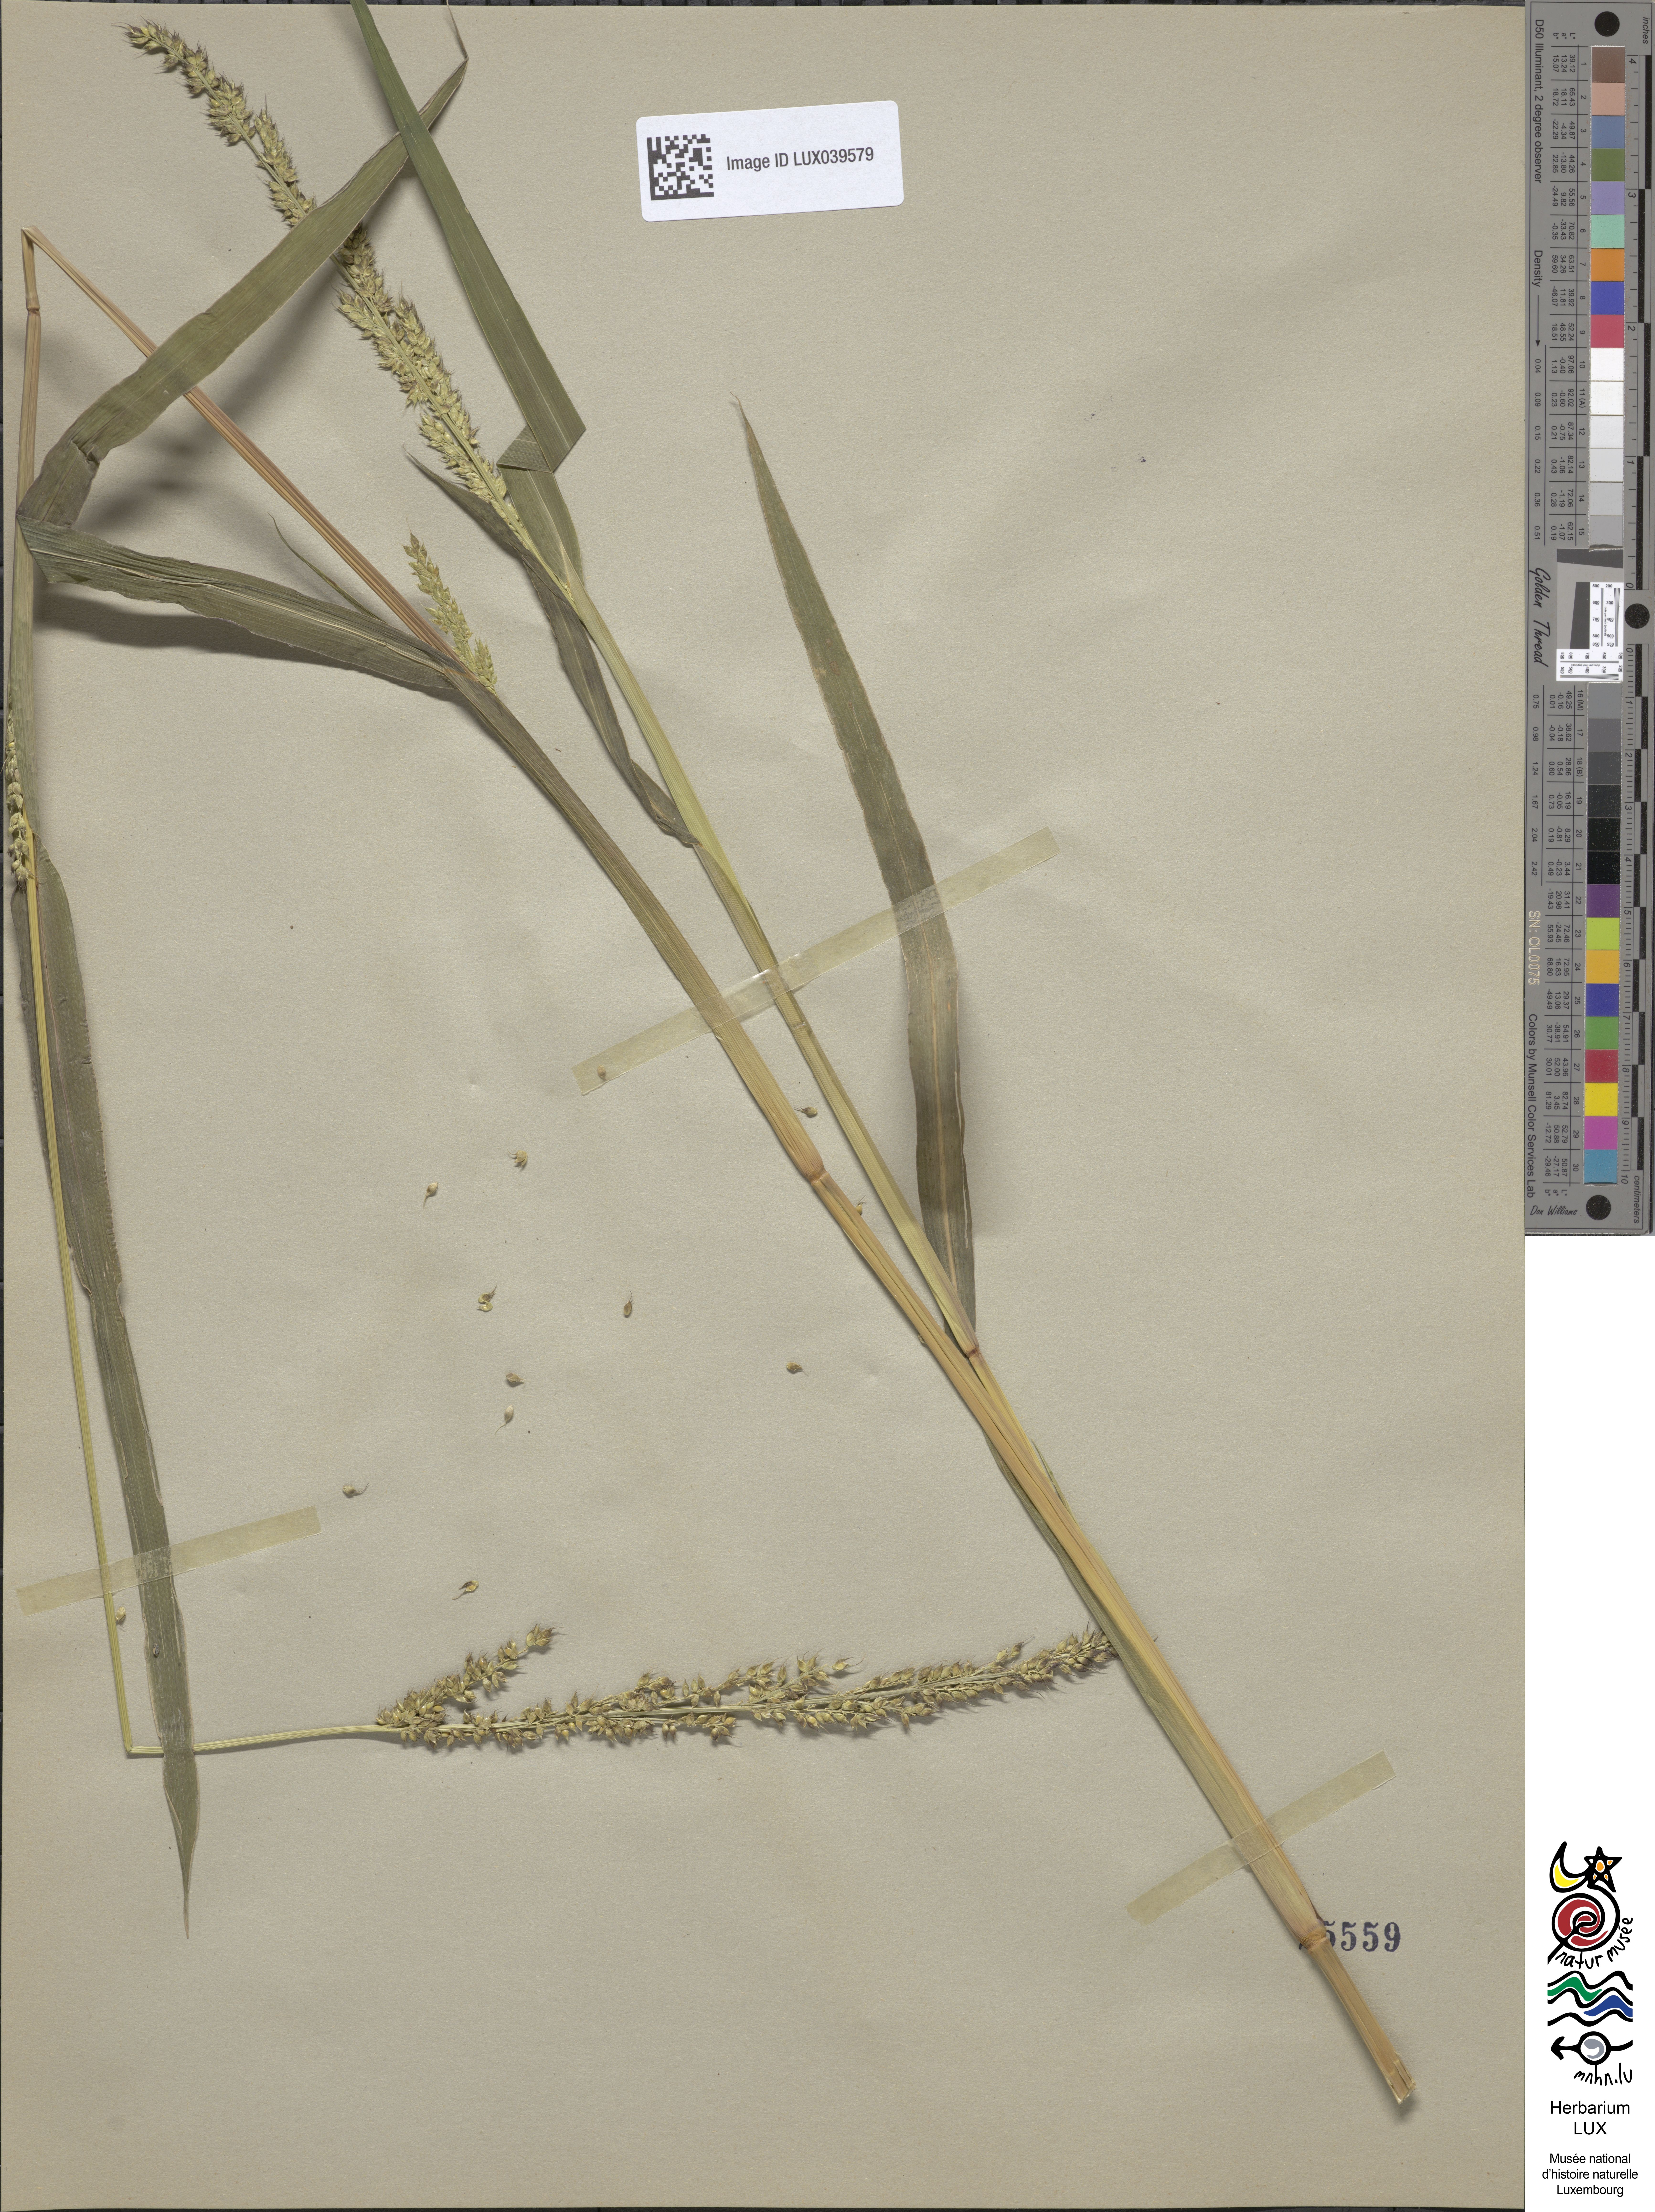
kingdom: Plantae
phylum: Tracheophyta
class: Liliopsida
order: Poales
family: Poaceae
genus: Echinochloa
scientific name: Echinochloa crus-galli
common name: Cockspur
